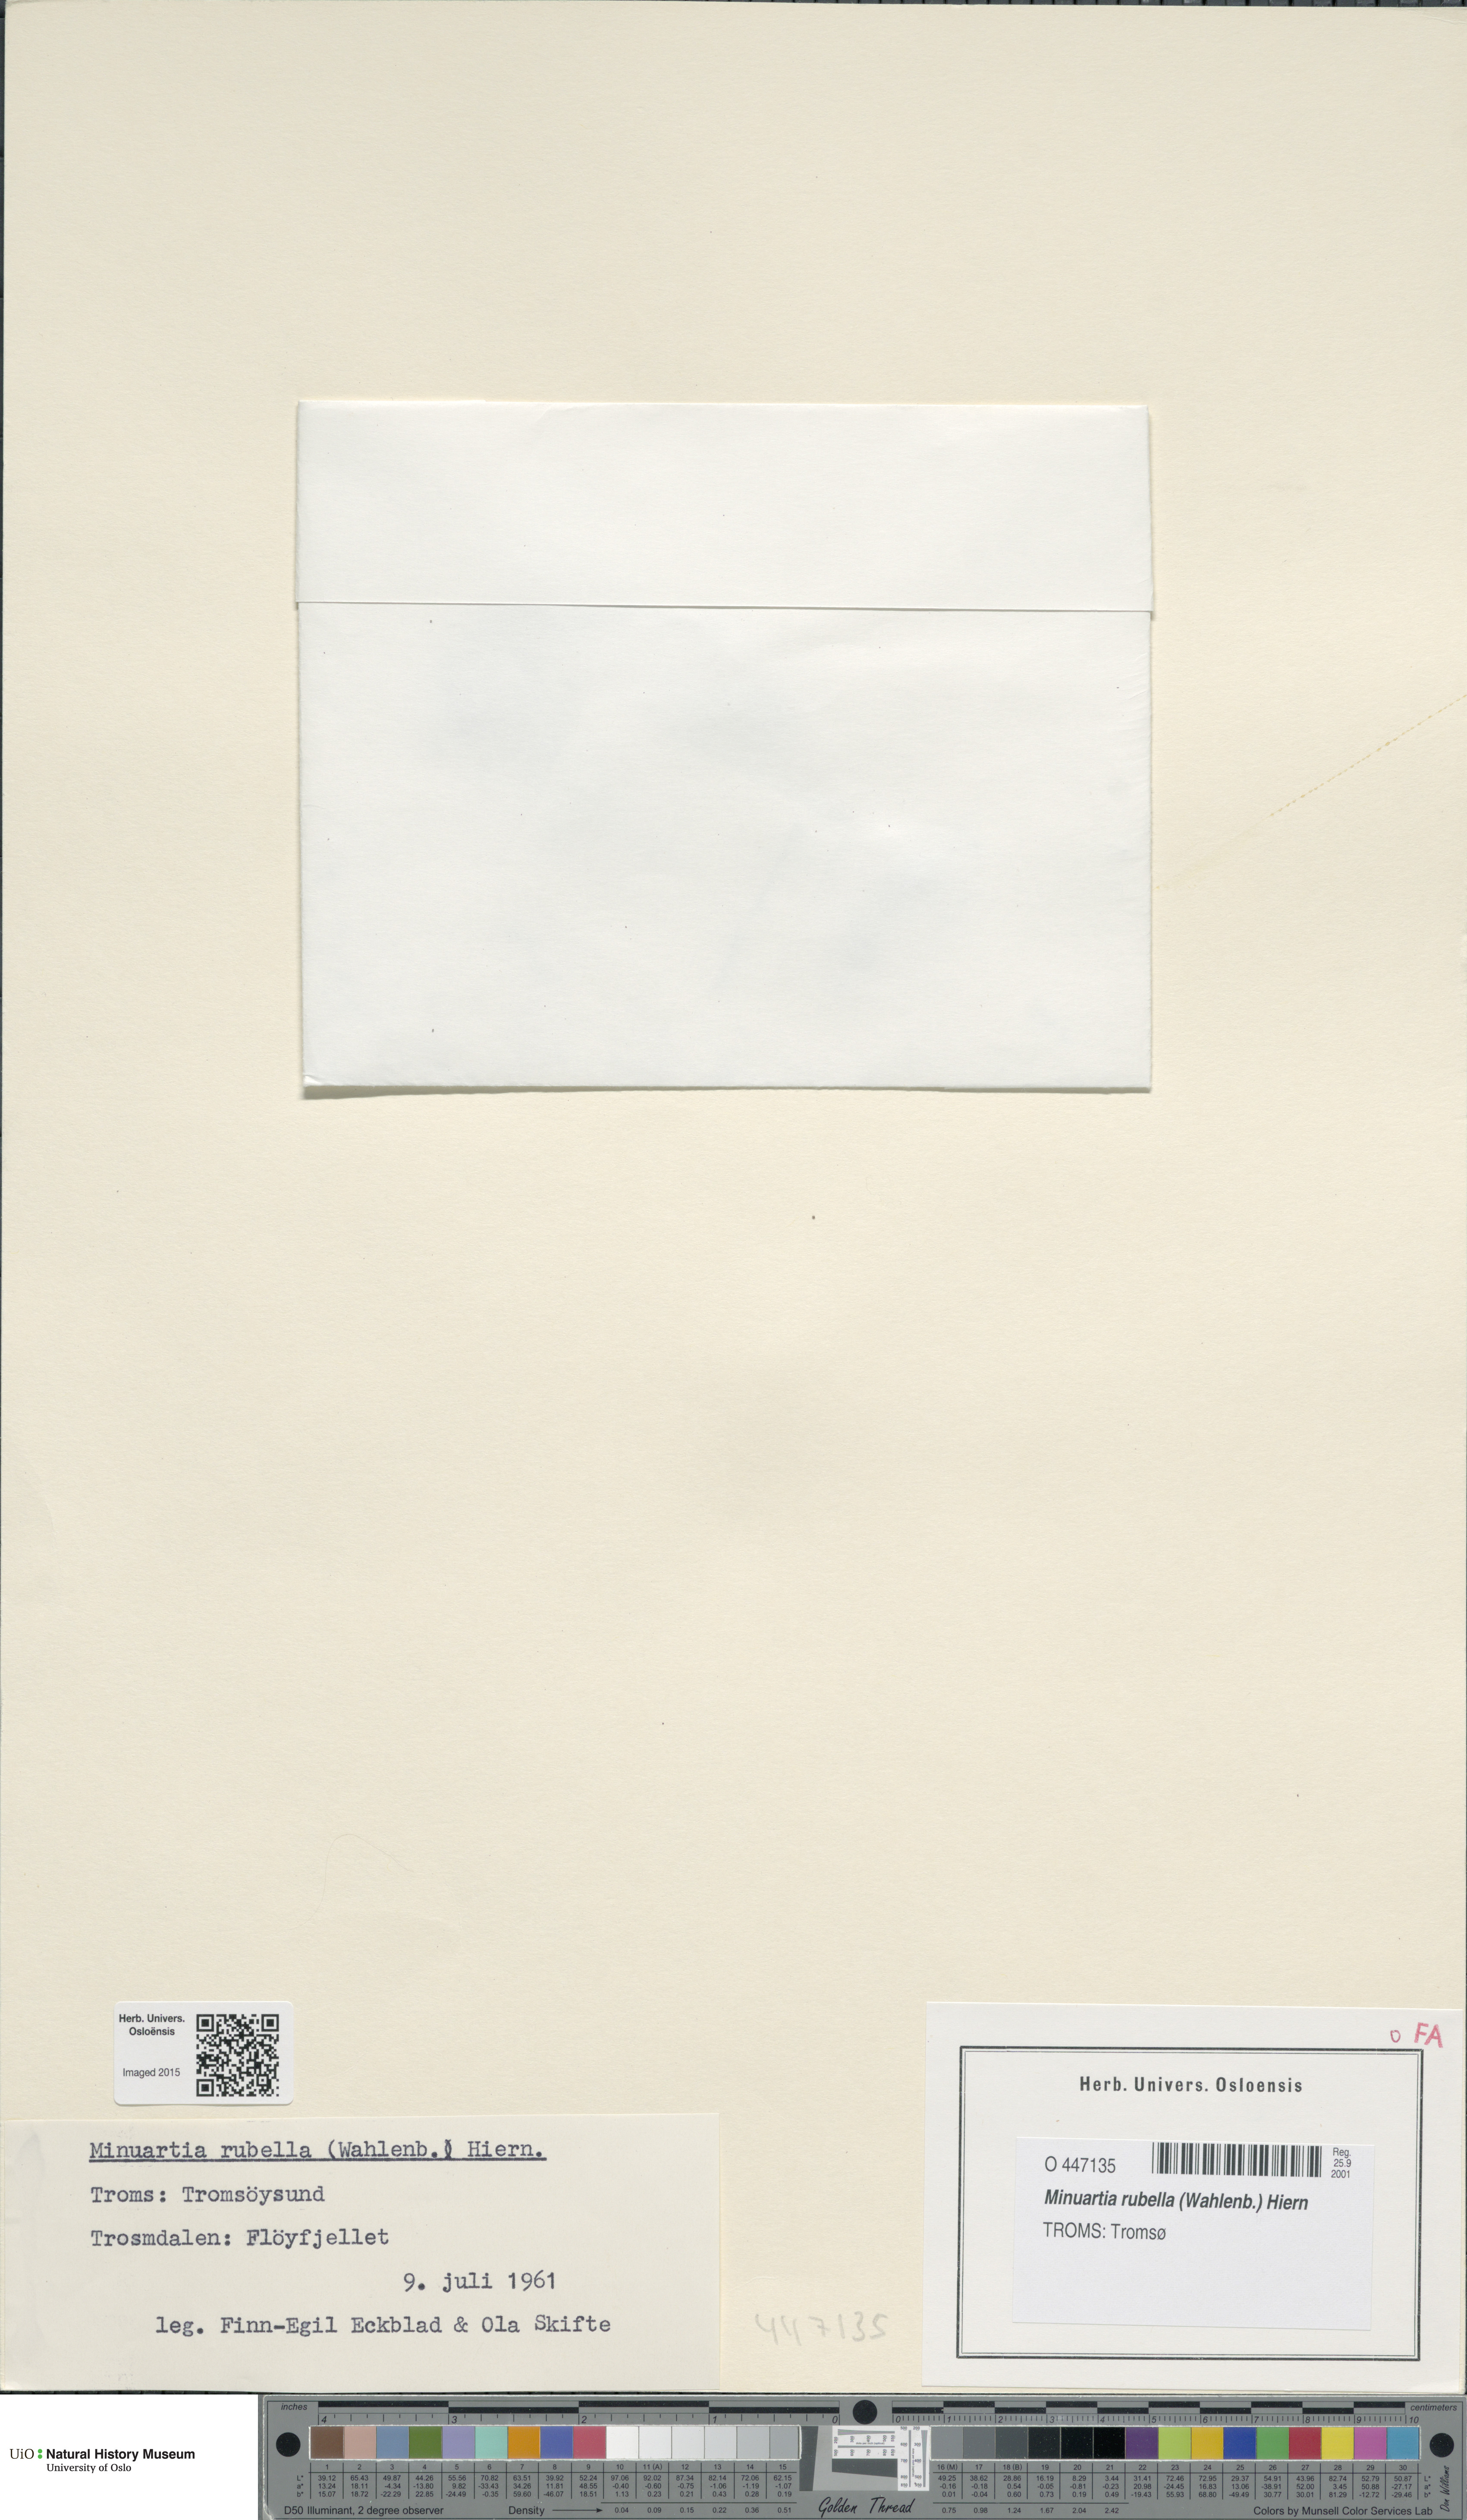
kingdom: Plantae
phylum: Tracheophyta
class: Magnoliopsida
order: Caryophyllales
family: Caryophyllaceae
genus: Sabulina
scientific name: Sabulina rubella
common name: Beautiful sandwort
